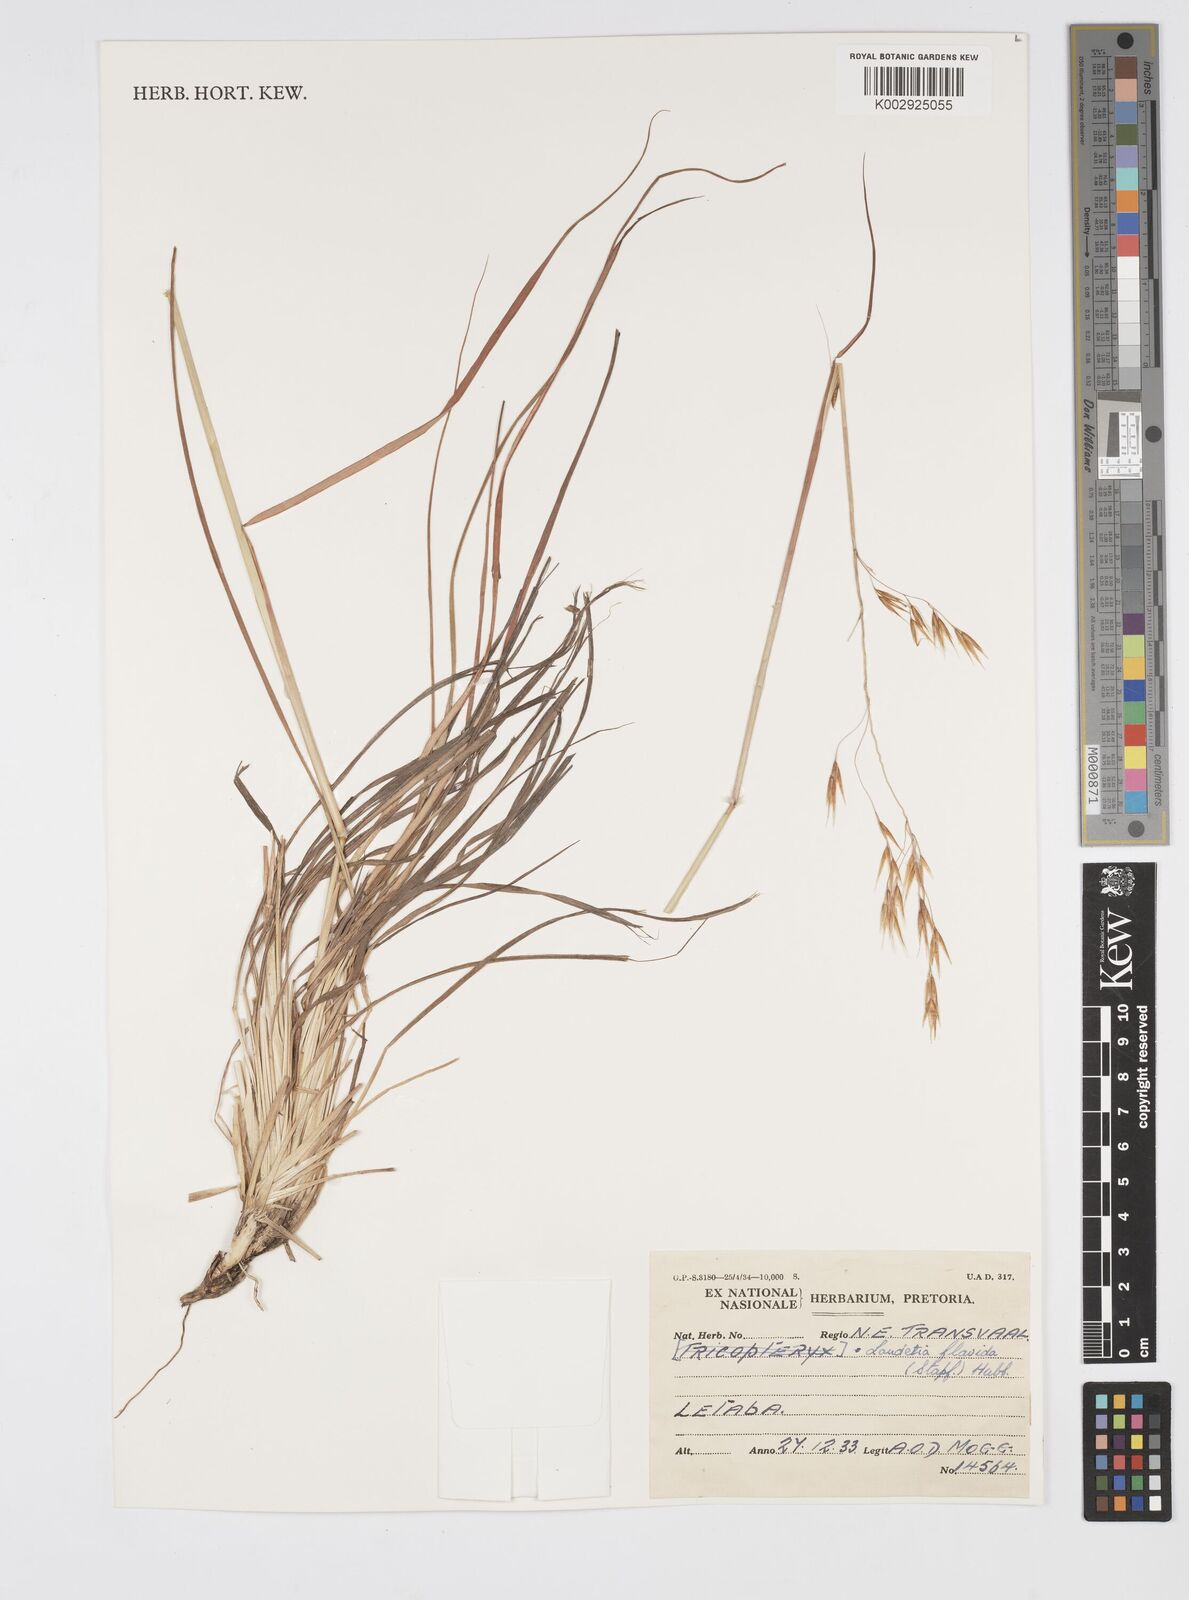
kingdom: Plantae
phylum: Tracheophyta
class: Liliopsida
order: Poales
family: Poaceae
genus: Loudetia
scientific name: Loudetia flavida
